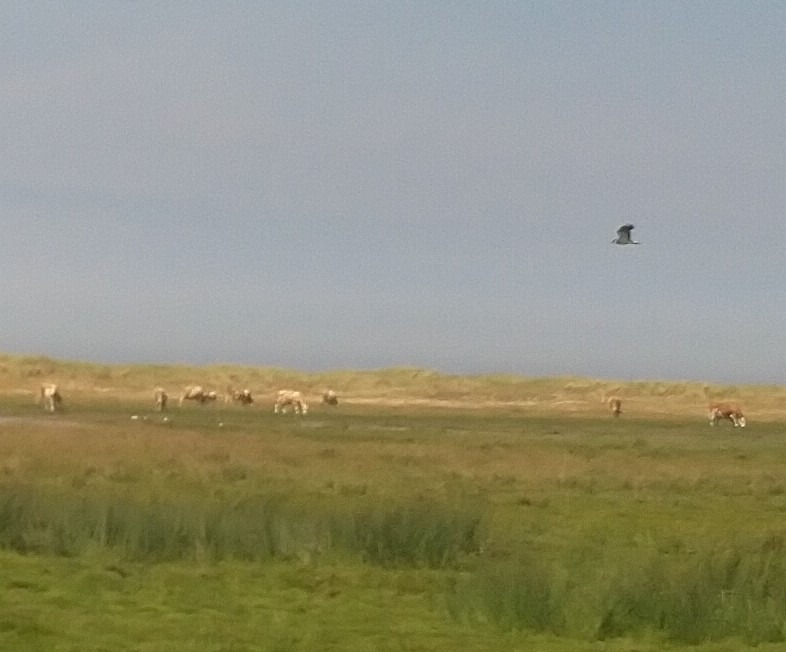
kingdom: Animalia
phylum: Chordata
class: Aves
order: Charadriiformes
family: Charadriidae
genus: Vanellus
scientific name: Vanellus vanellus
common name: Vibe
